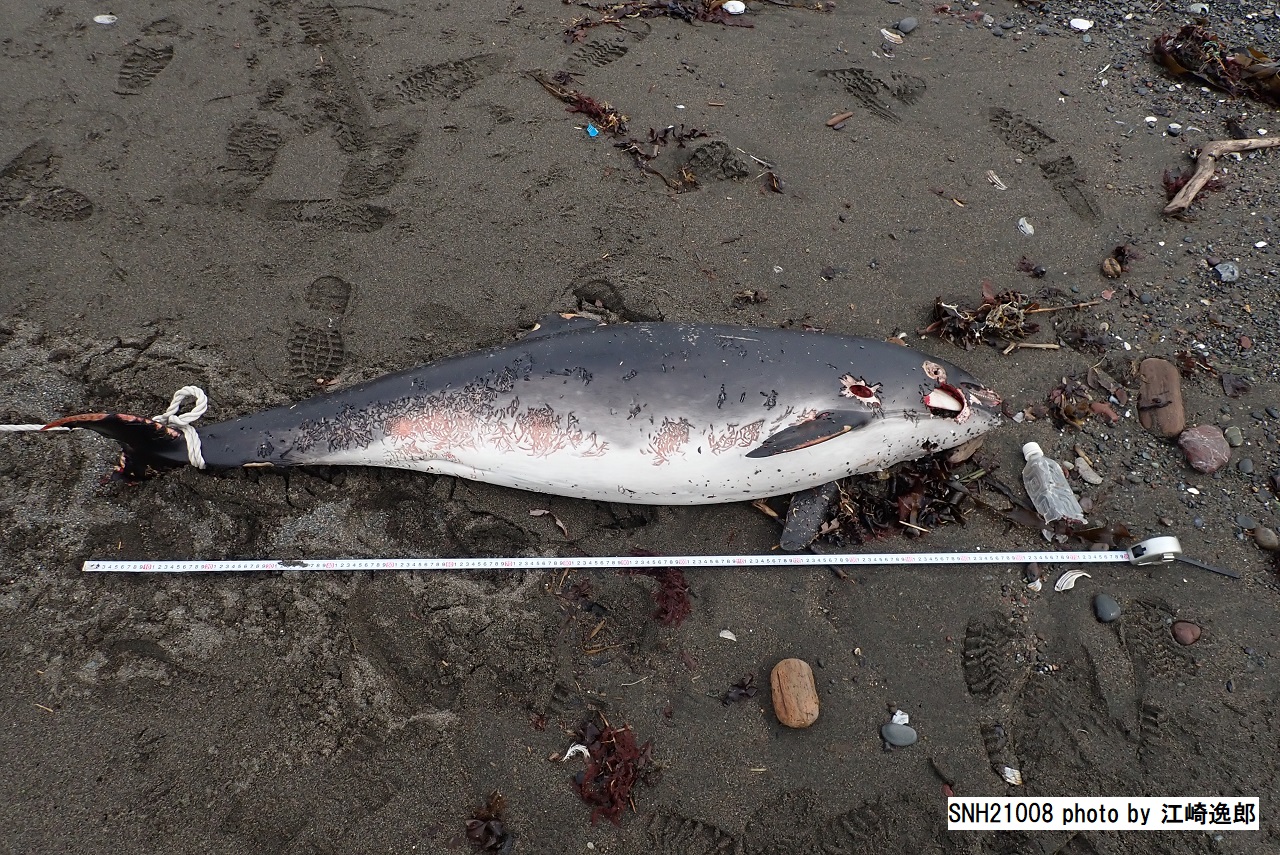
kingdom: Animalia
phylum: Chordata
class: Mammalia
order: Cetacea
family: Phocoenidae
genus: Phocoena
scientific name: Phocoena phocoena
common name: Harbour porpoise
